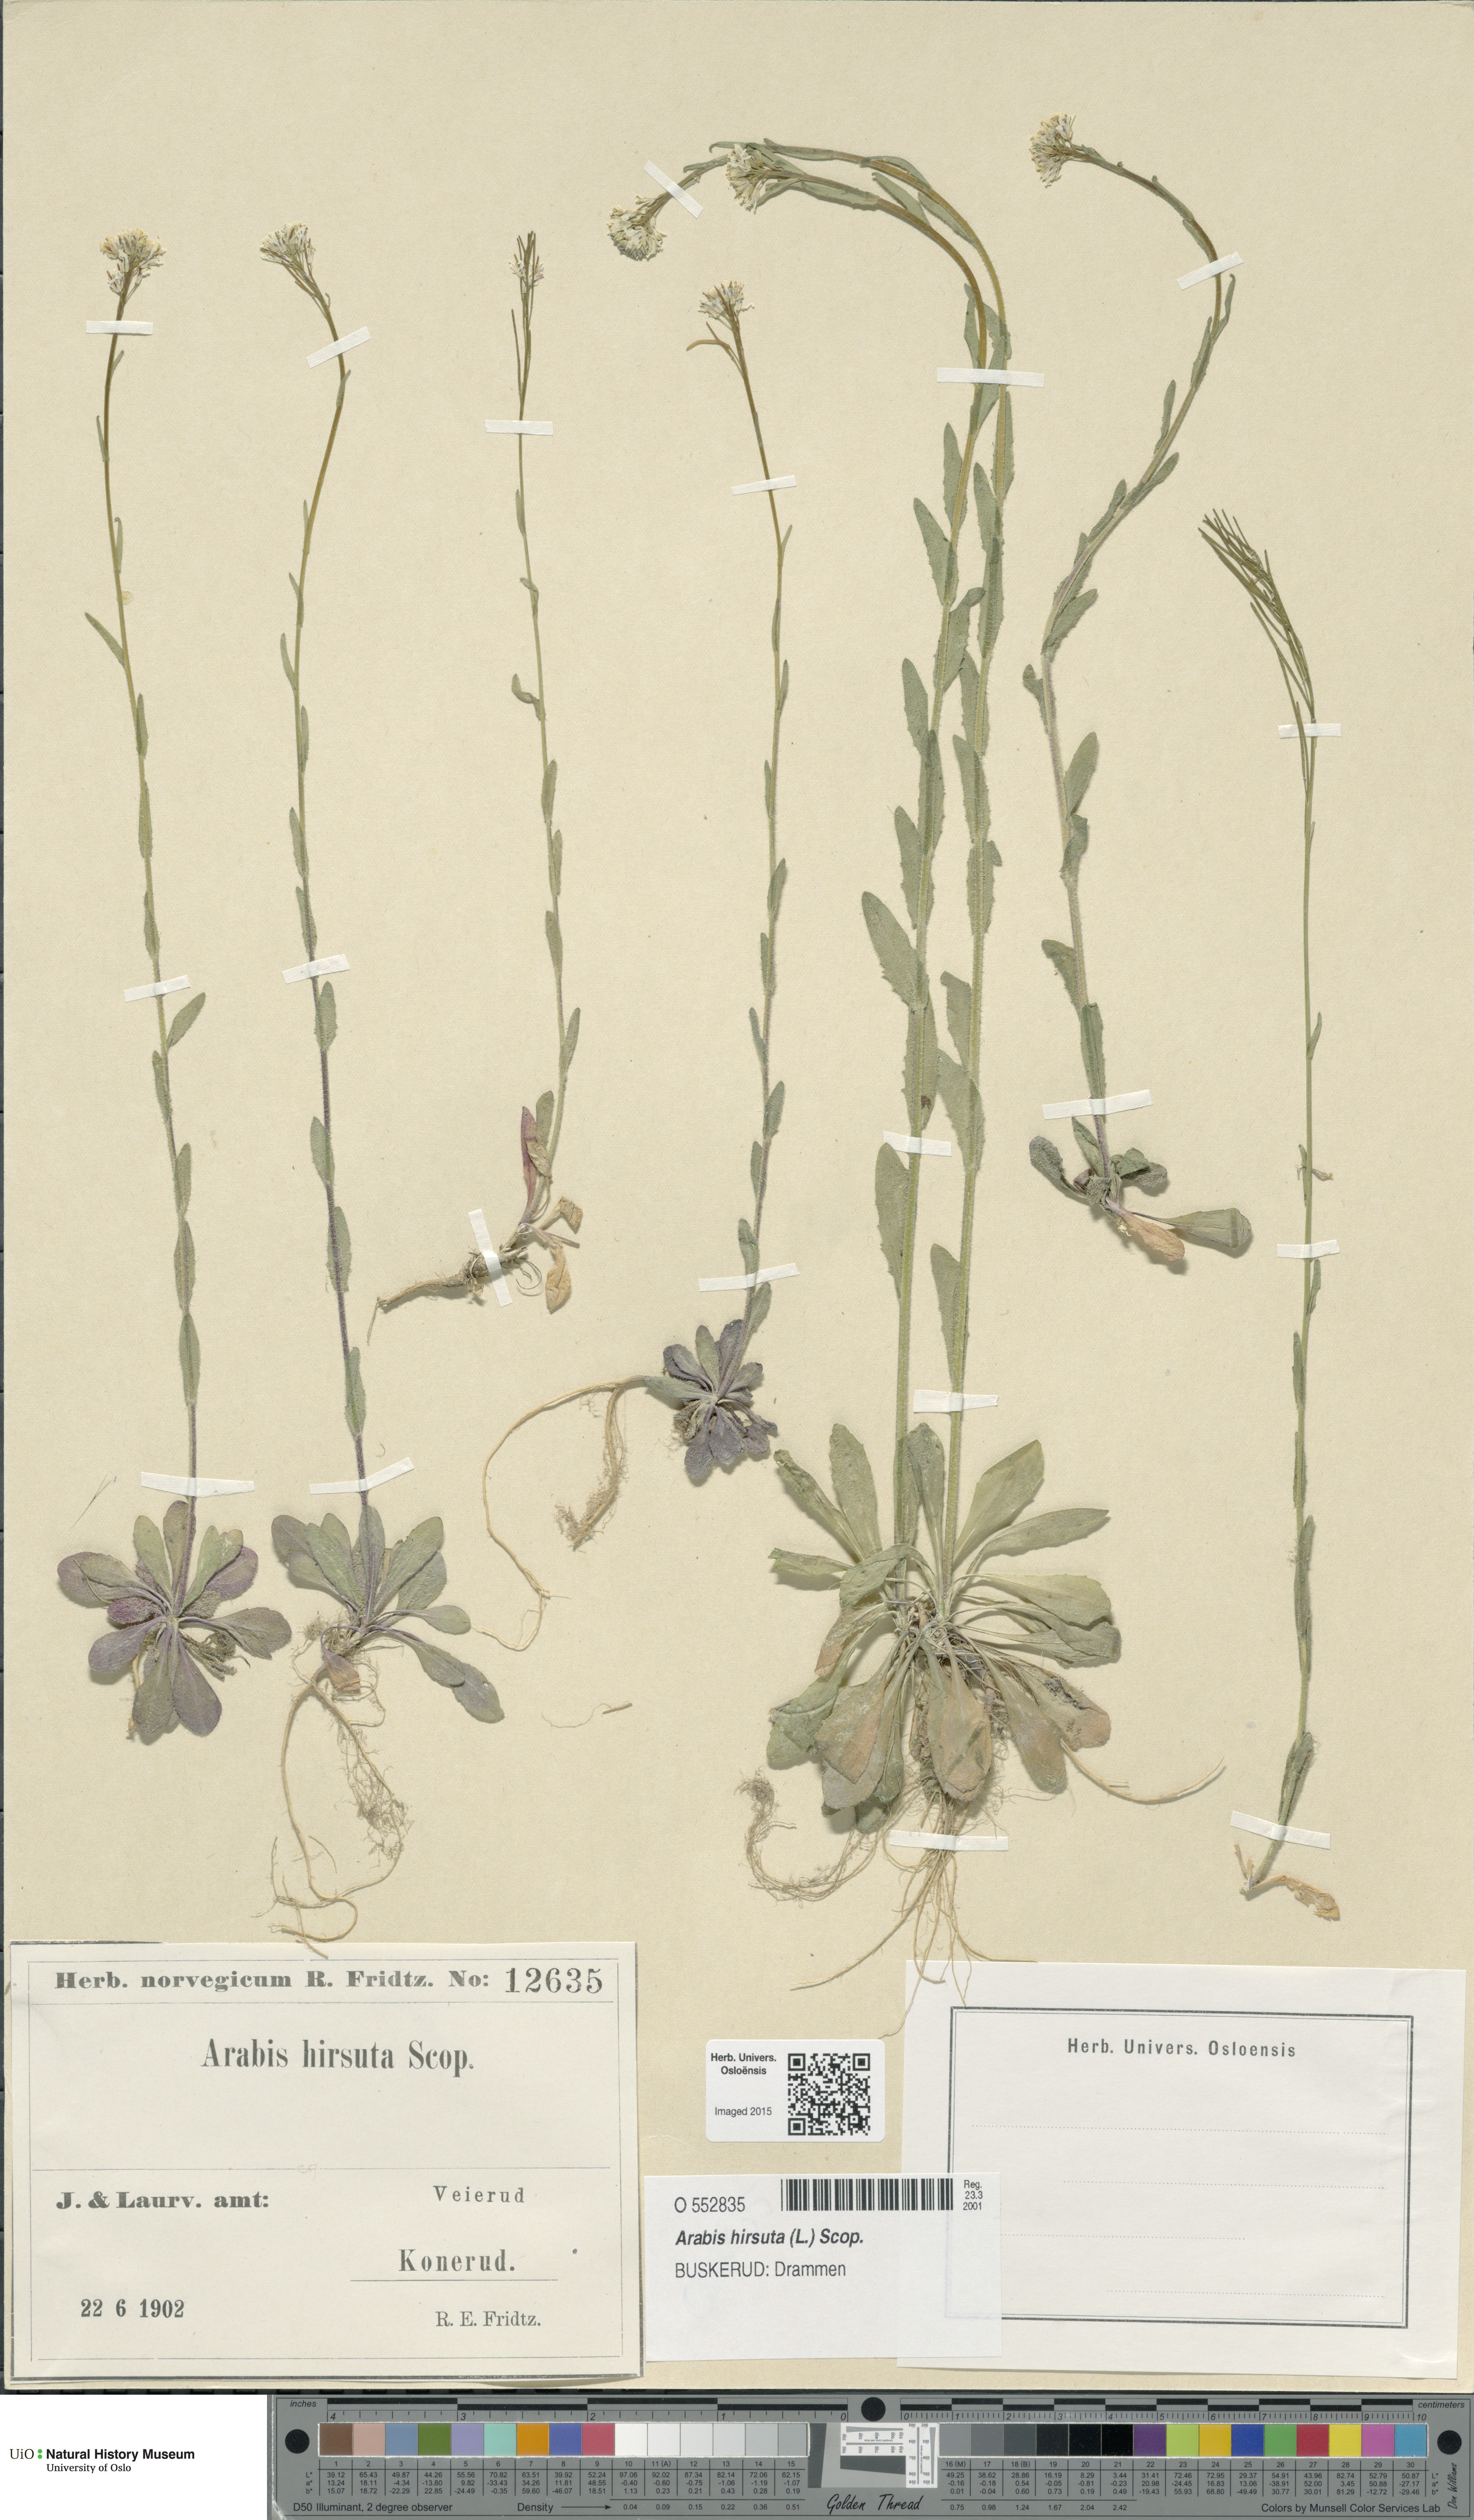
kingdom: Plantae
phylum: Tracheophyta
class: Magnoliopsida
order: Brassicales
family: Brassicaceae
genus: Arabis
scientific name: Arabis hirsuta
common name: Hairy rock-cress
